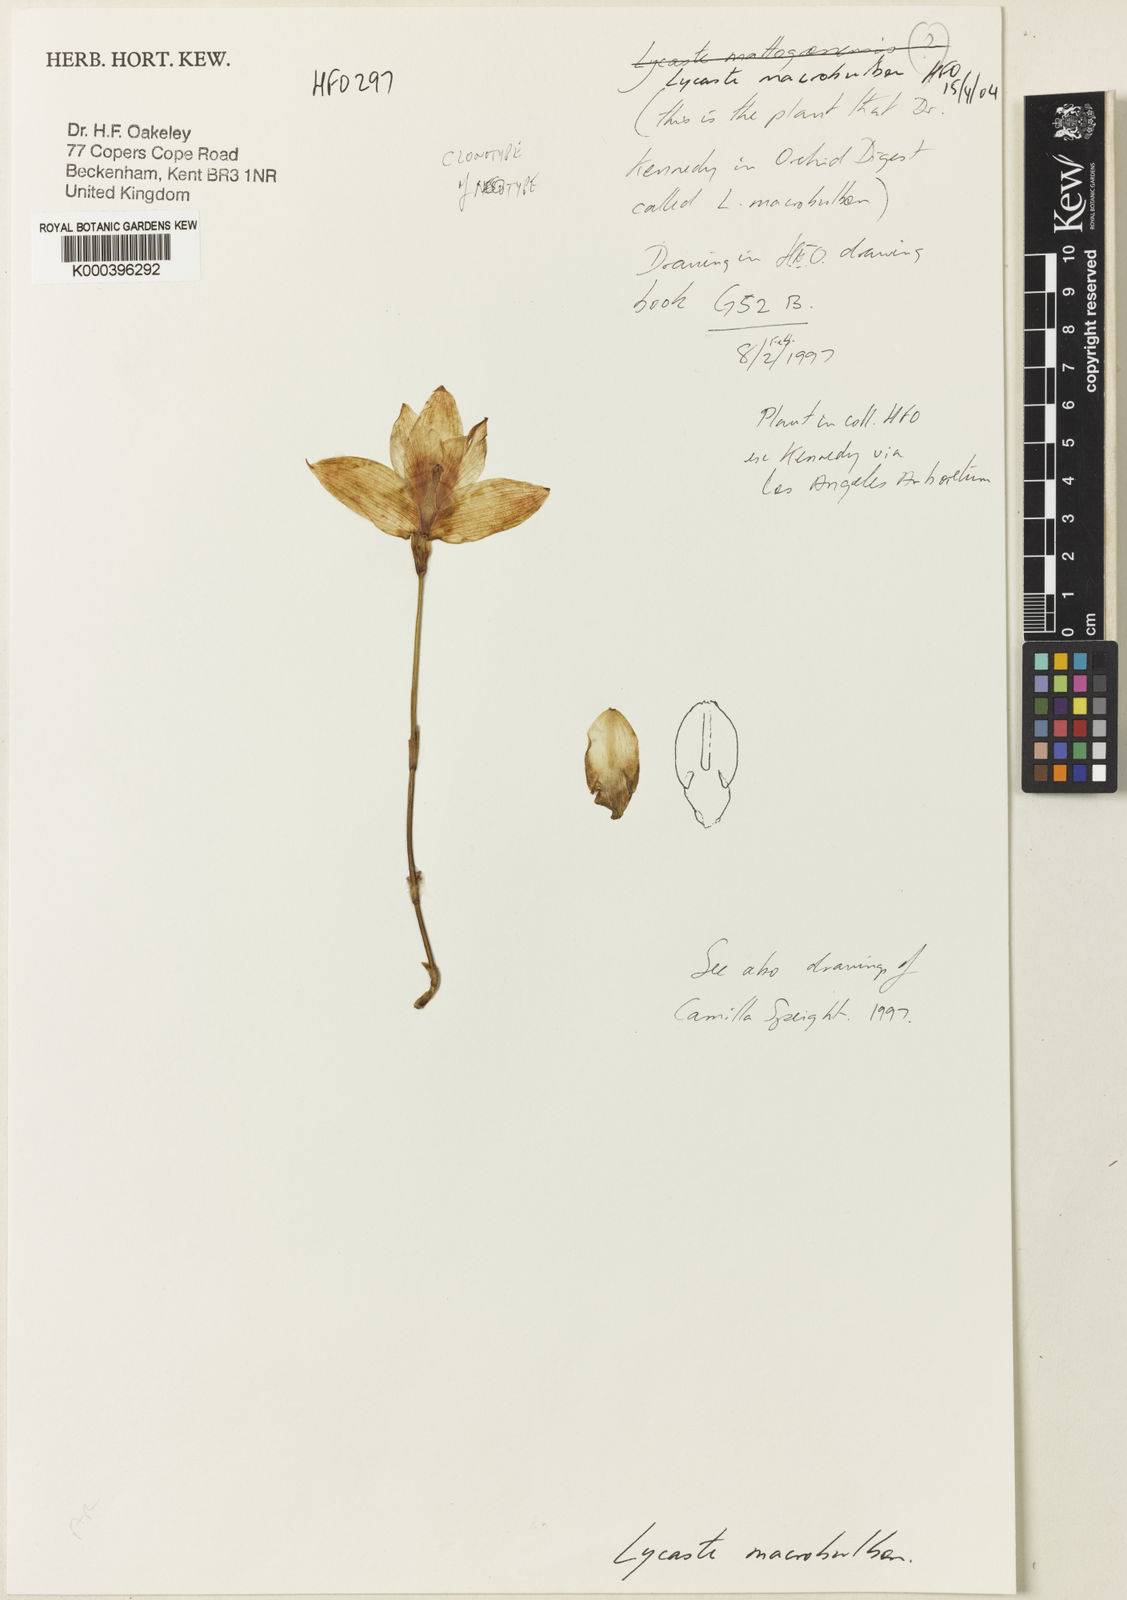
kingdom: Plantae
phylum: Tracheophyta
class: Liliopsida
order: Asparagales
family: Orchidaceae
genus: Lycaste
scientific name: Lycaste macrobulbon
